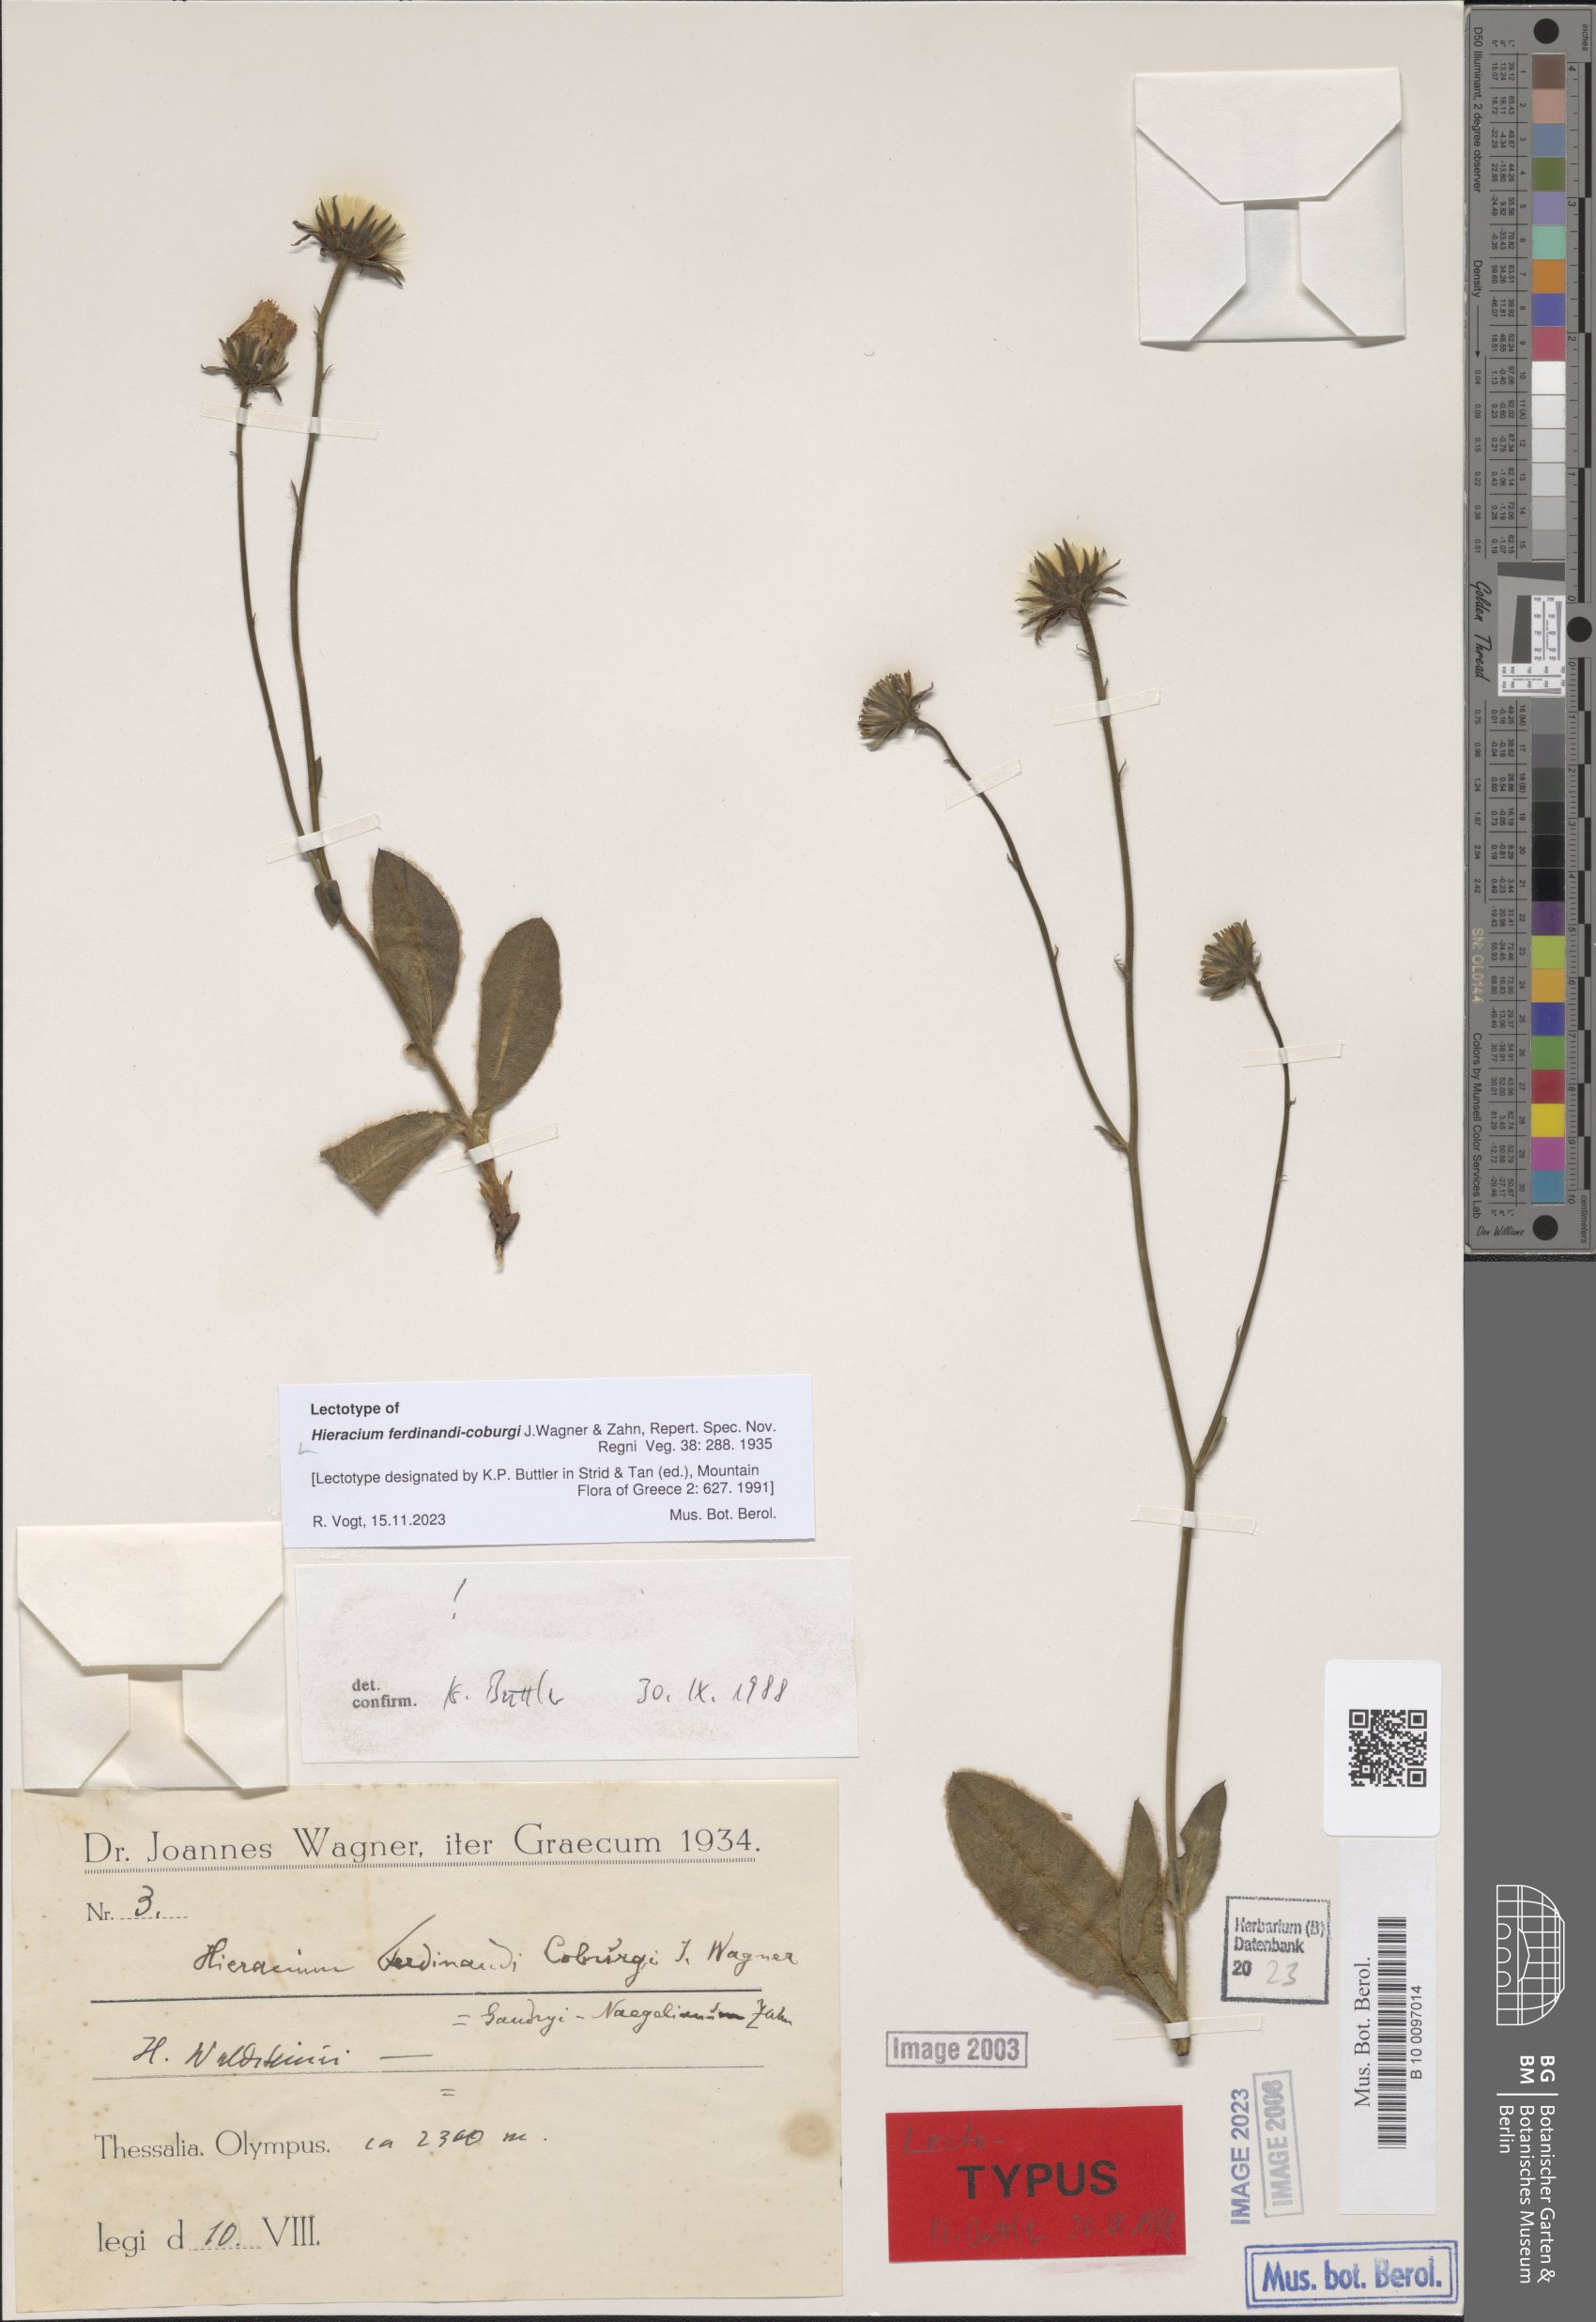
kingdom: Plantae
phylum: Tracheophyta
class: Magnoliopsida
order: Asterales
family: Asteraceae
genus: Hieracium
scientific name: Hieracium waldsteinii
